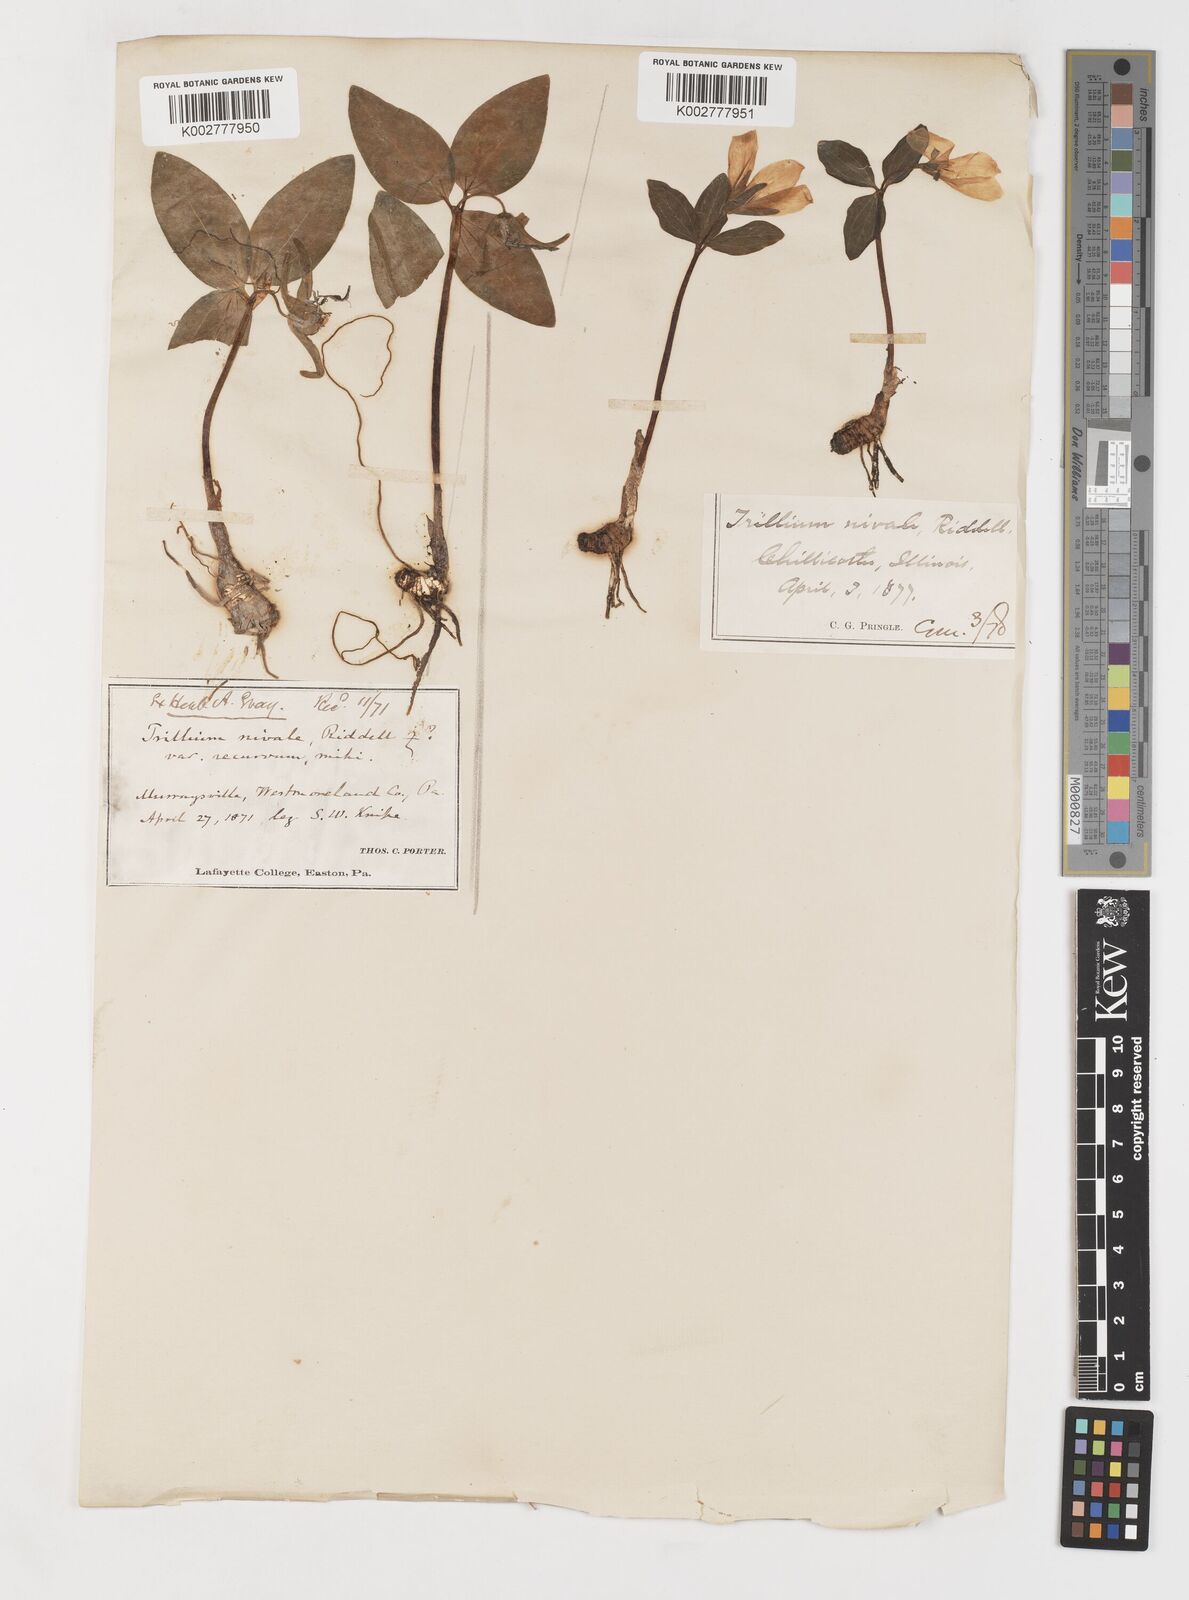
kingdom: Plantae
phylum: Tracheophyta
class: Liliopsida
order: Liliales
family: Melanthiaceae
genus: Trillium
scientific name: Trillium nivale
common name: Dwarf white trillium
